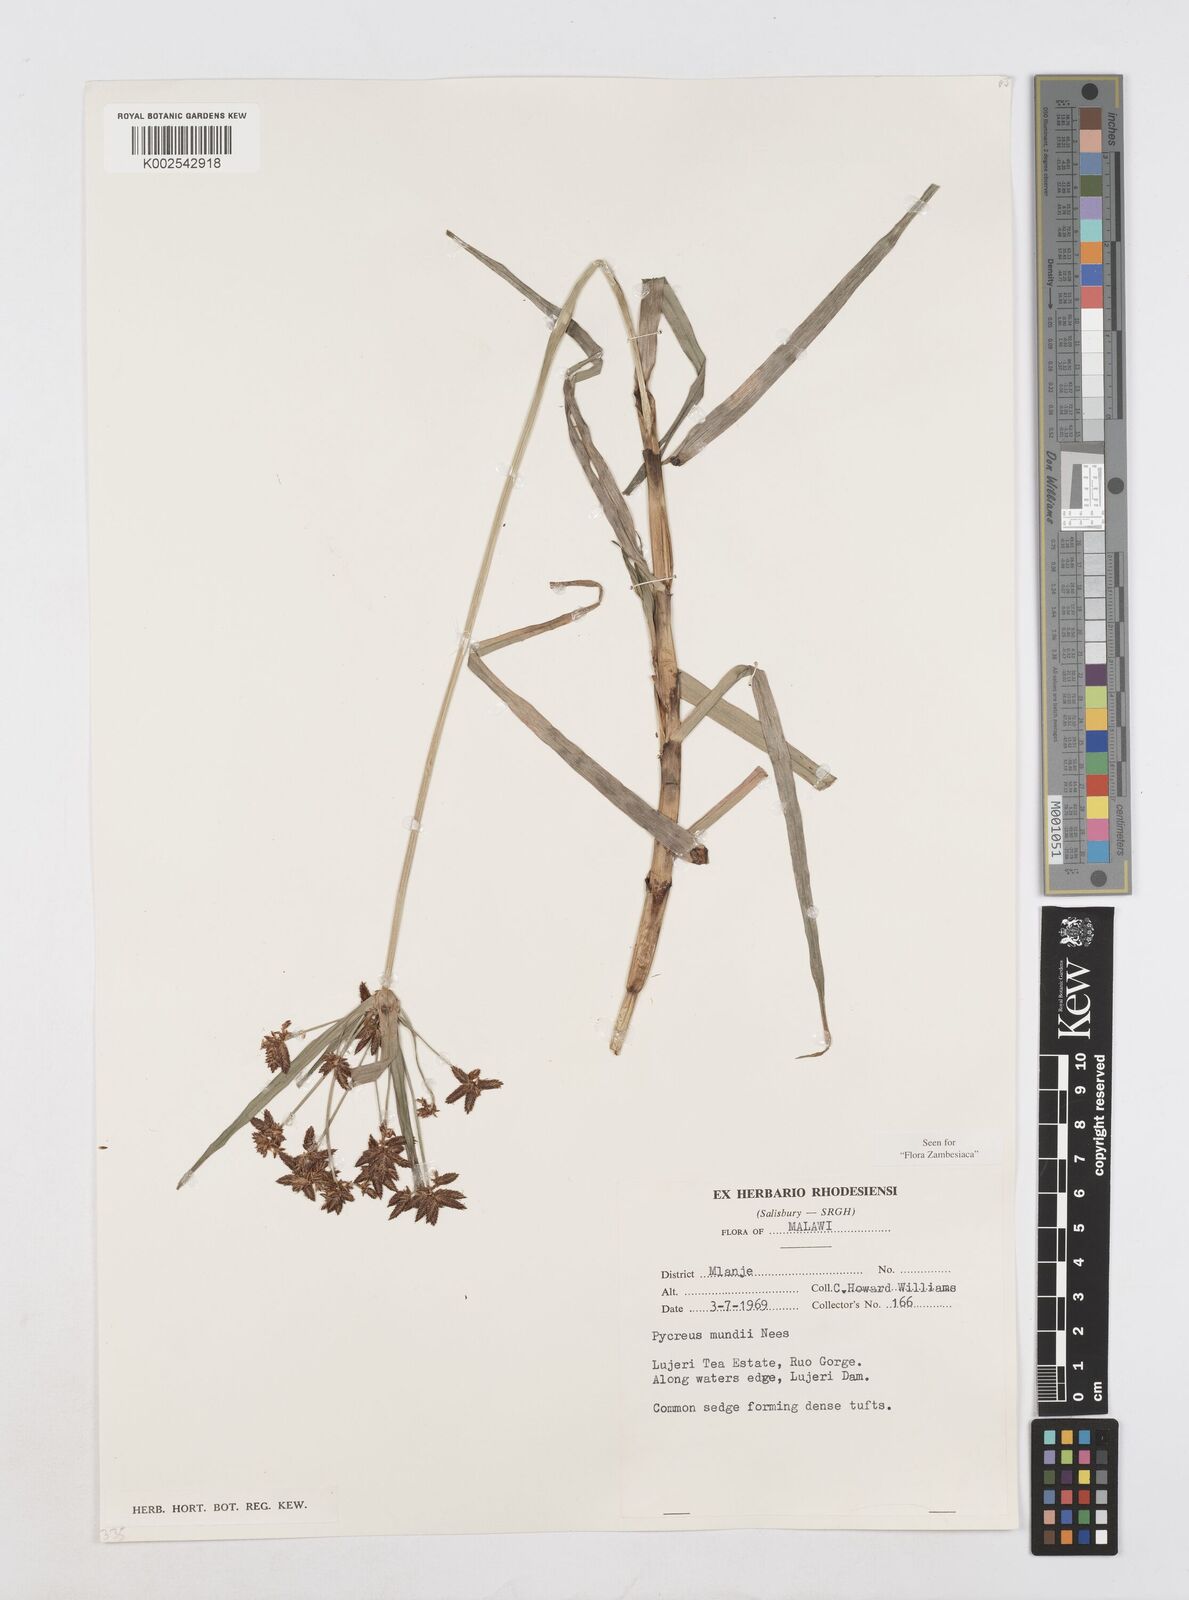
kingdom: Plantae
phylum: Tracheophyta
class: Liliopsida
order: Poales
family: Cyperaceae
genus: Cyperus
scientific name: Cyperus mundii
